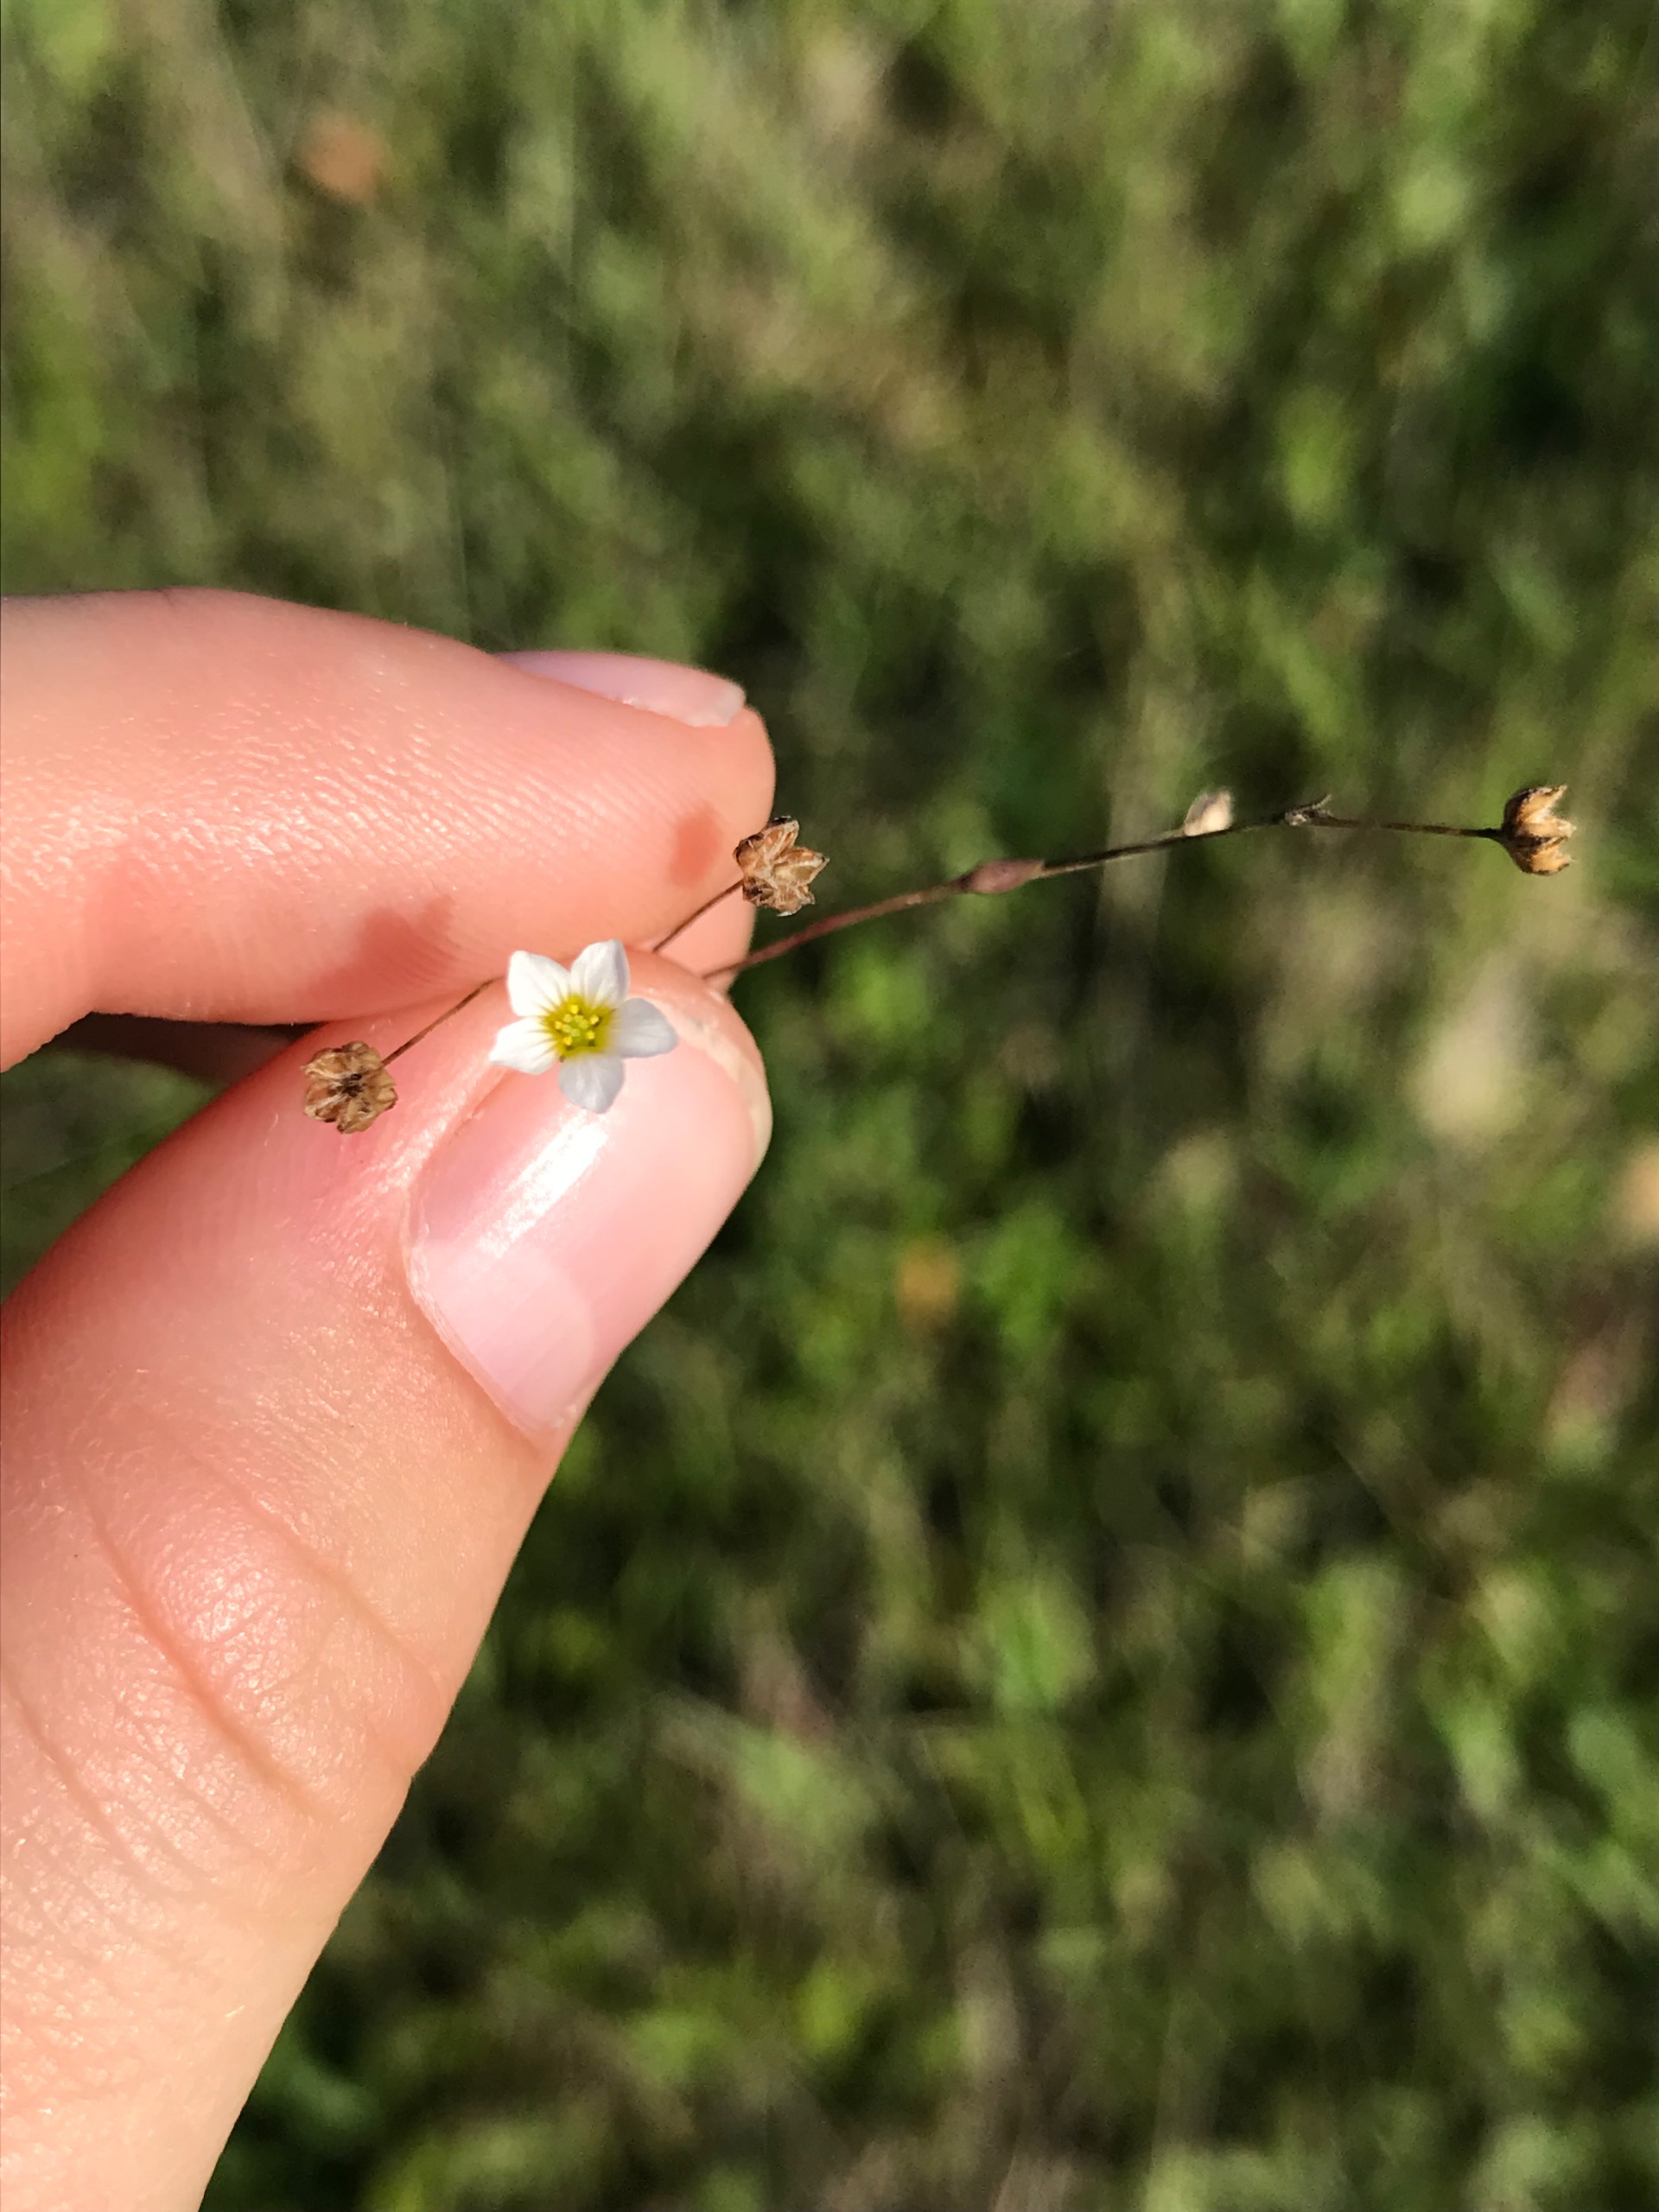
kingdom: Plantae
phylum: Tracheophyta
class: Magnoliopsida
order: Malpighiales
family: Linaceae
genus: Linum
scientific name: Linum catharticum
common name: Vild hør
